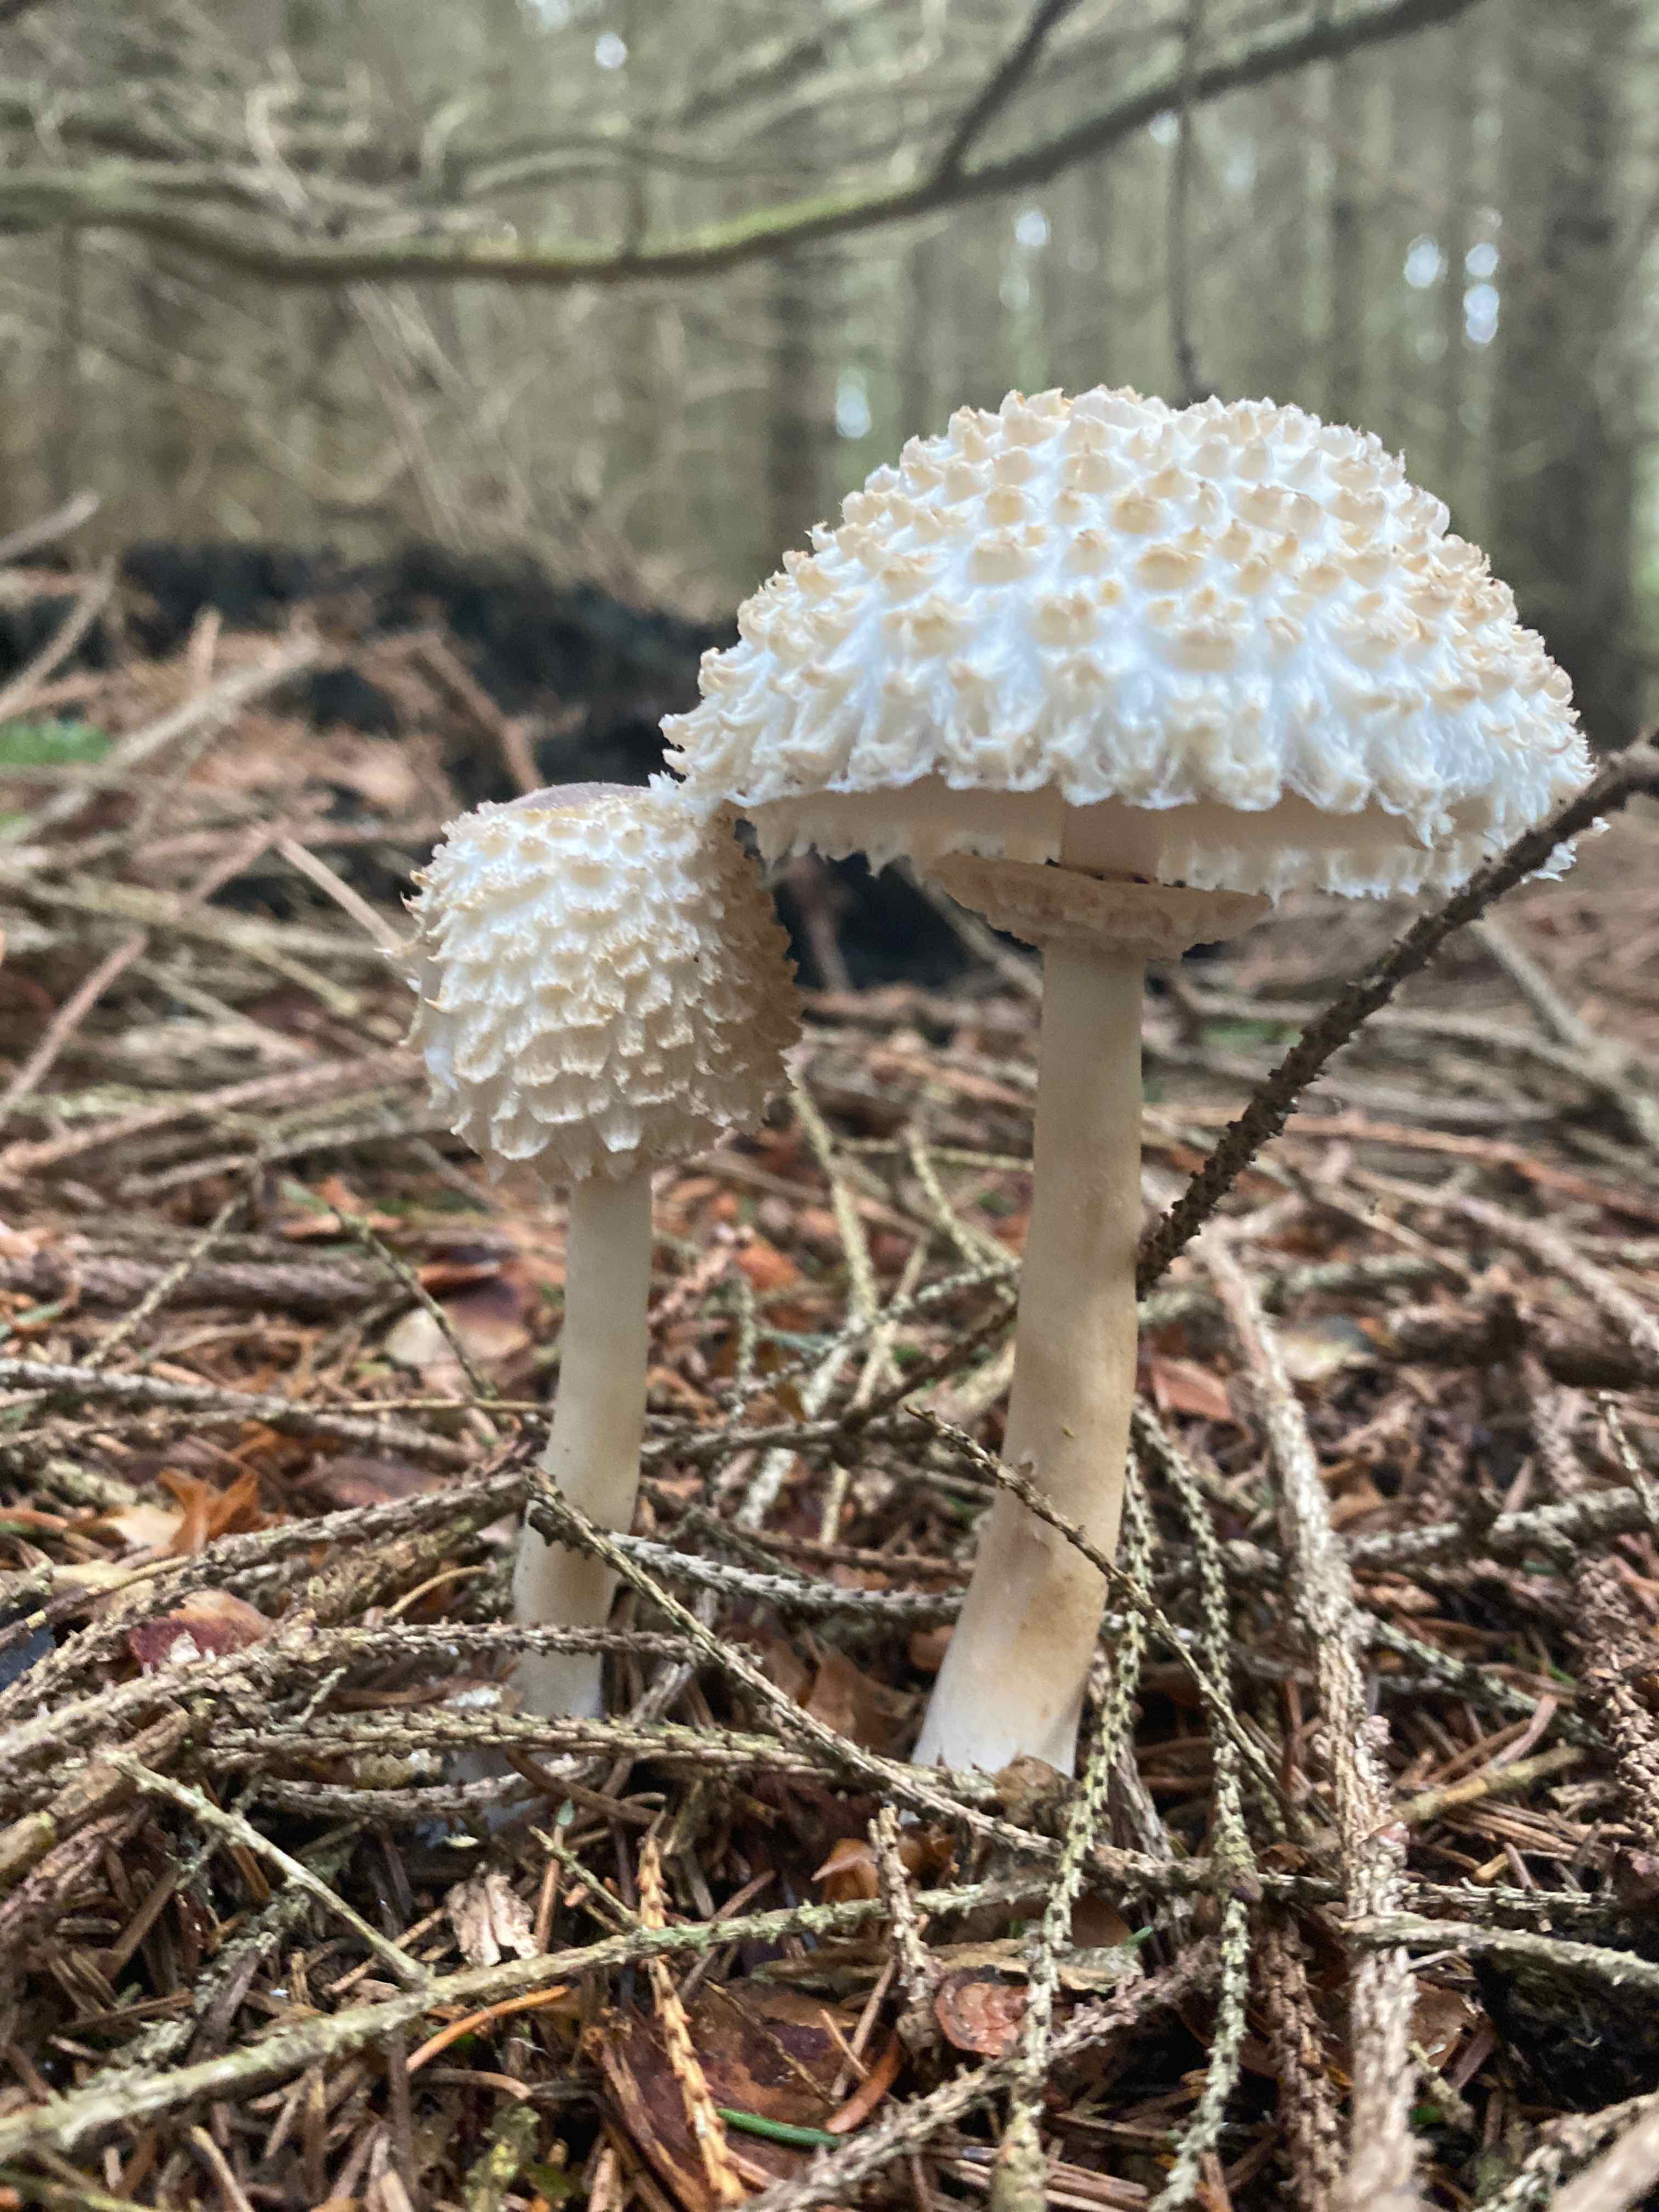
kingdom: Fungi
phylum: Basidiomycota
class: Agaricomycetes
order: Agaricales
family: Agaricaceae
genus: Leucoagaricus
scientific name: Leucoagaricus nympharum
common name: gran-silkehat
